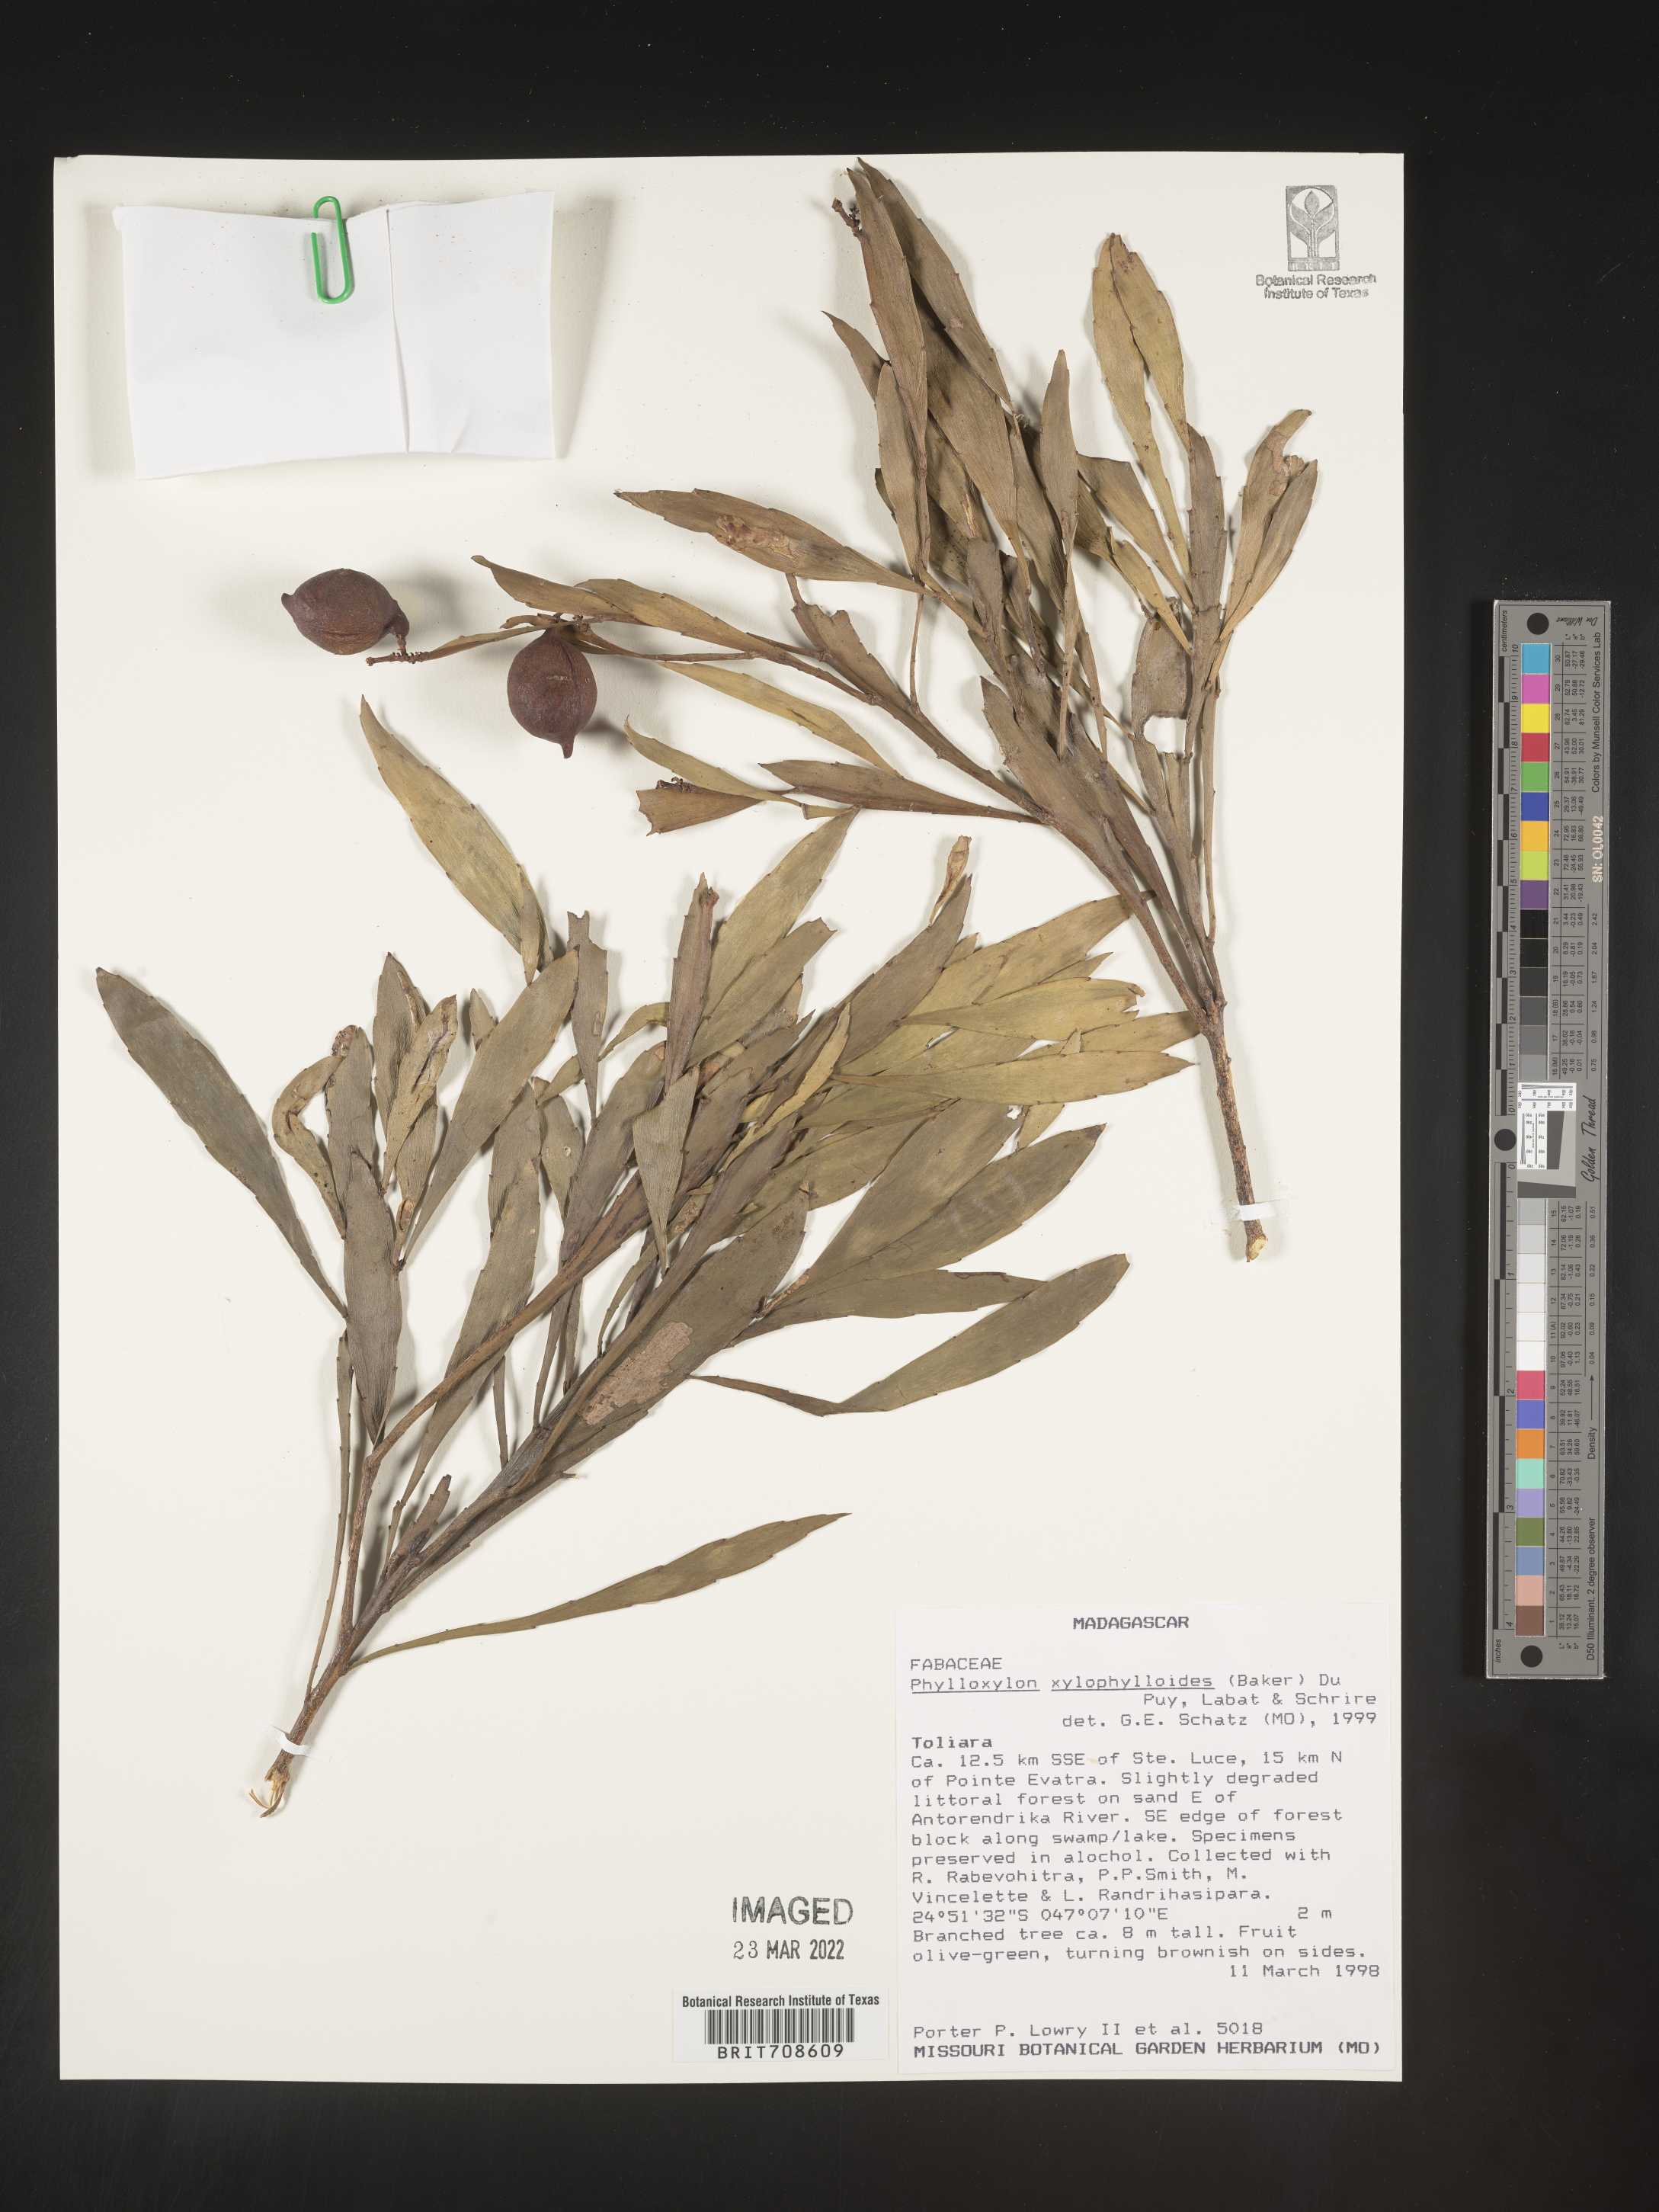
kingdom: Plantae
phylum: Tracheophyta
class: Magnoliopsida
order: Fabales
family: Fabaceae
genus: Phylloxylon
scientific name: Phylloxylon
